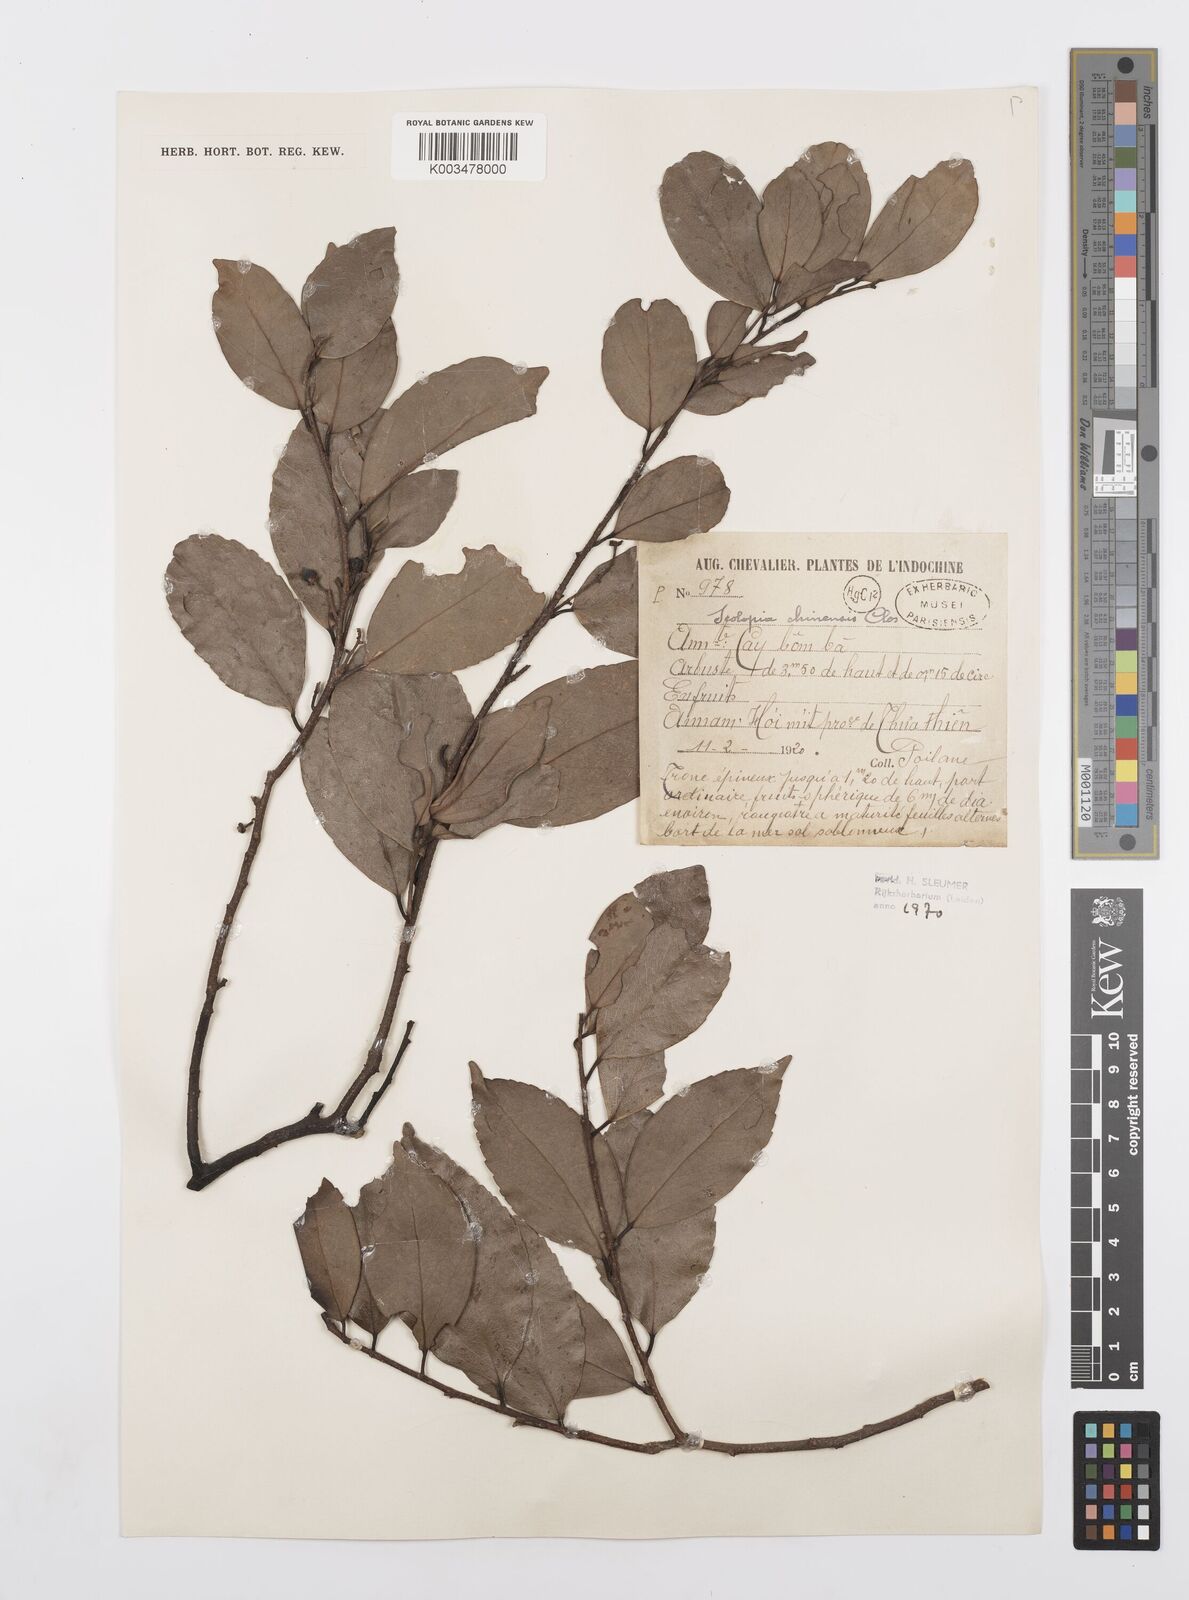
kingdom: Plantae
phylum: Tracheophyta
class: Magnoliopsida
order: Malpighiales
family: Salicaceae
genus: Scolopia
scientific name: Scolopia chinensis
